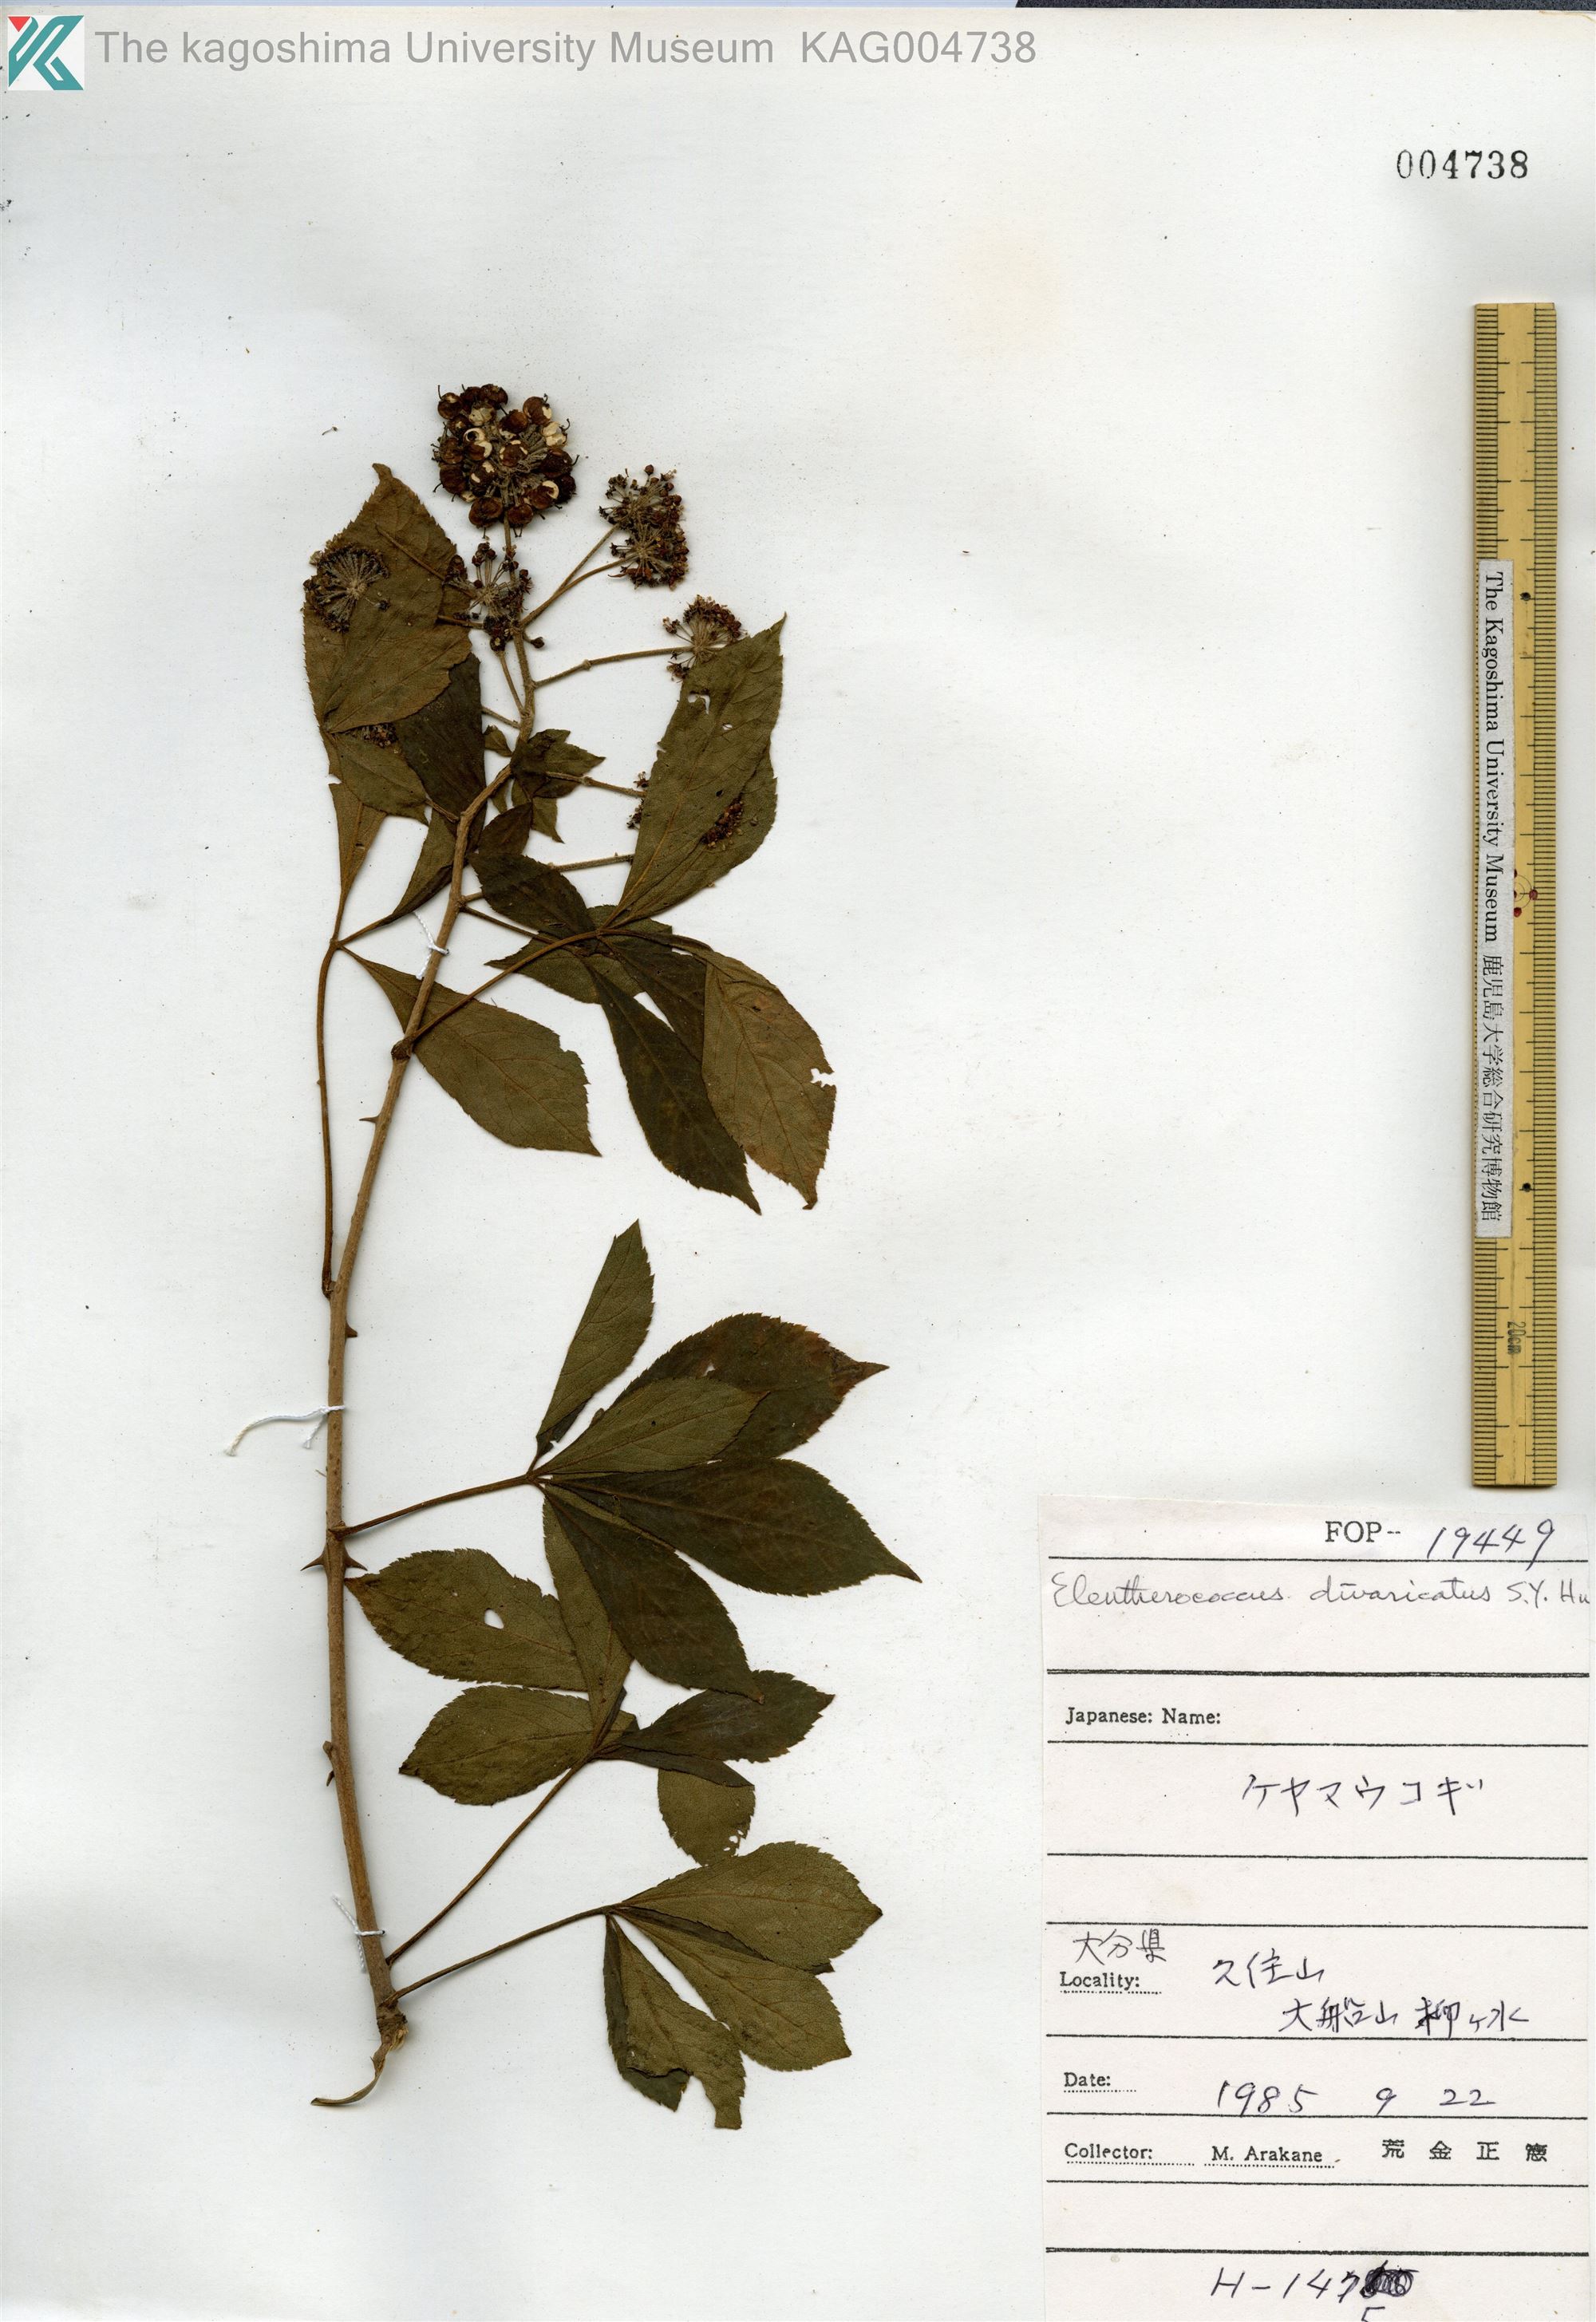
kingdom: Plantae
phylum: Tracheophyta
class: Magnoliopsida
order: Apiales
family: Araliaceae
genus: Eleutherococcus
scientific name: Eleutherococcus divaricatus
